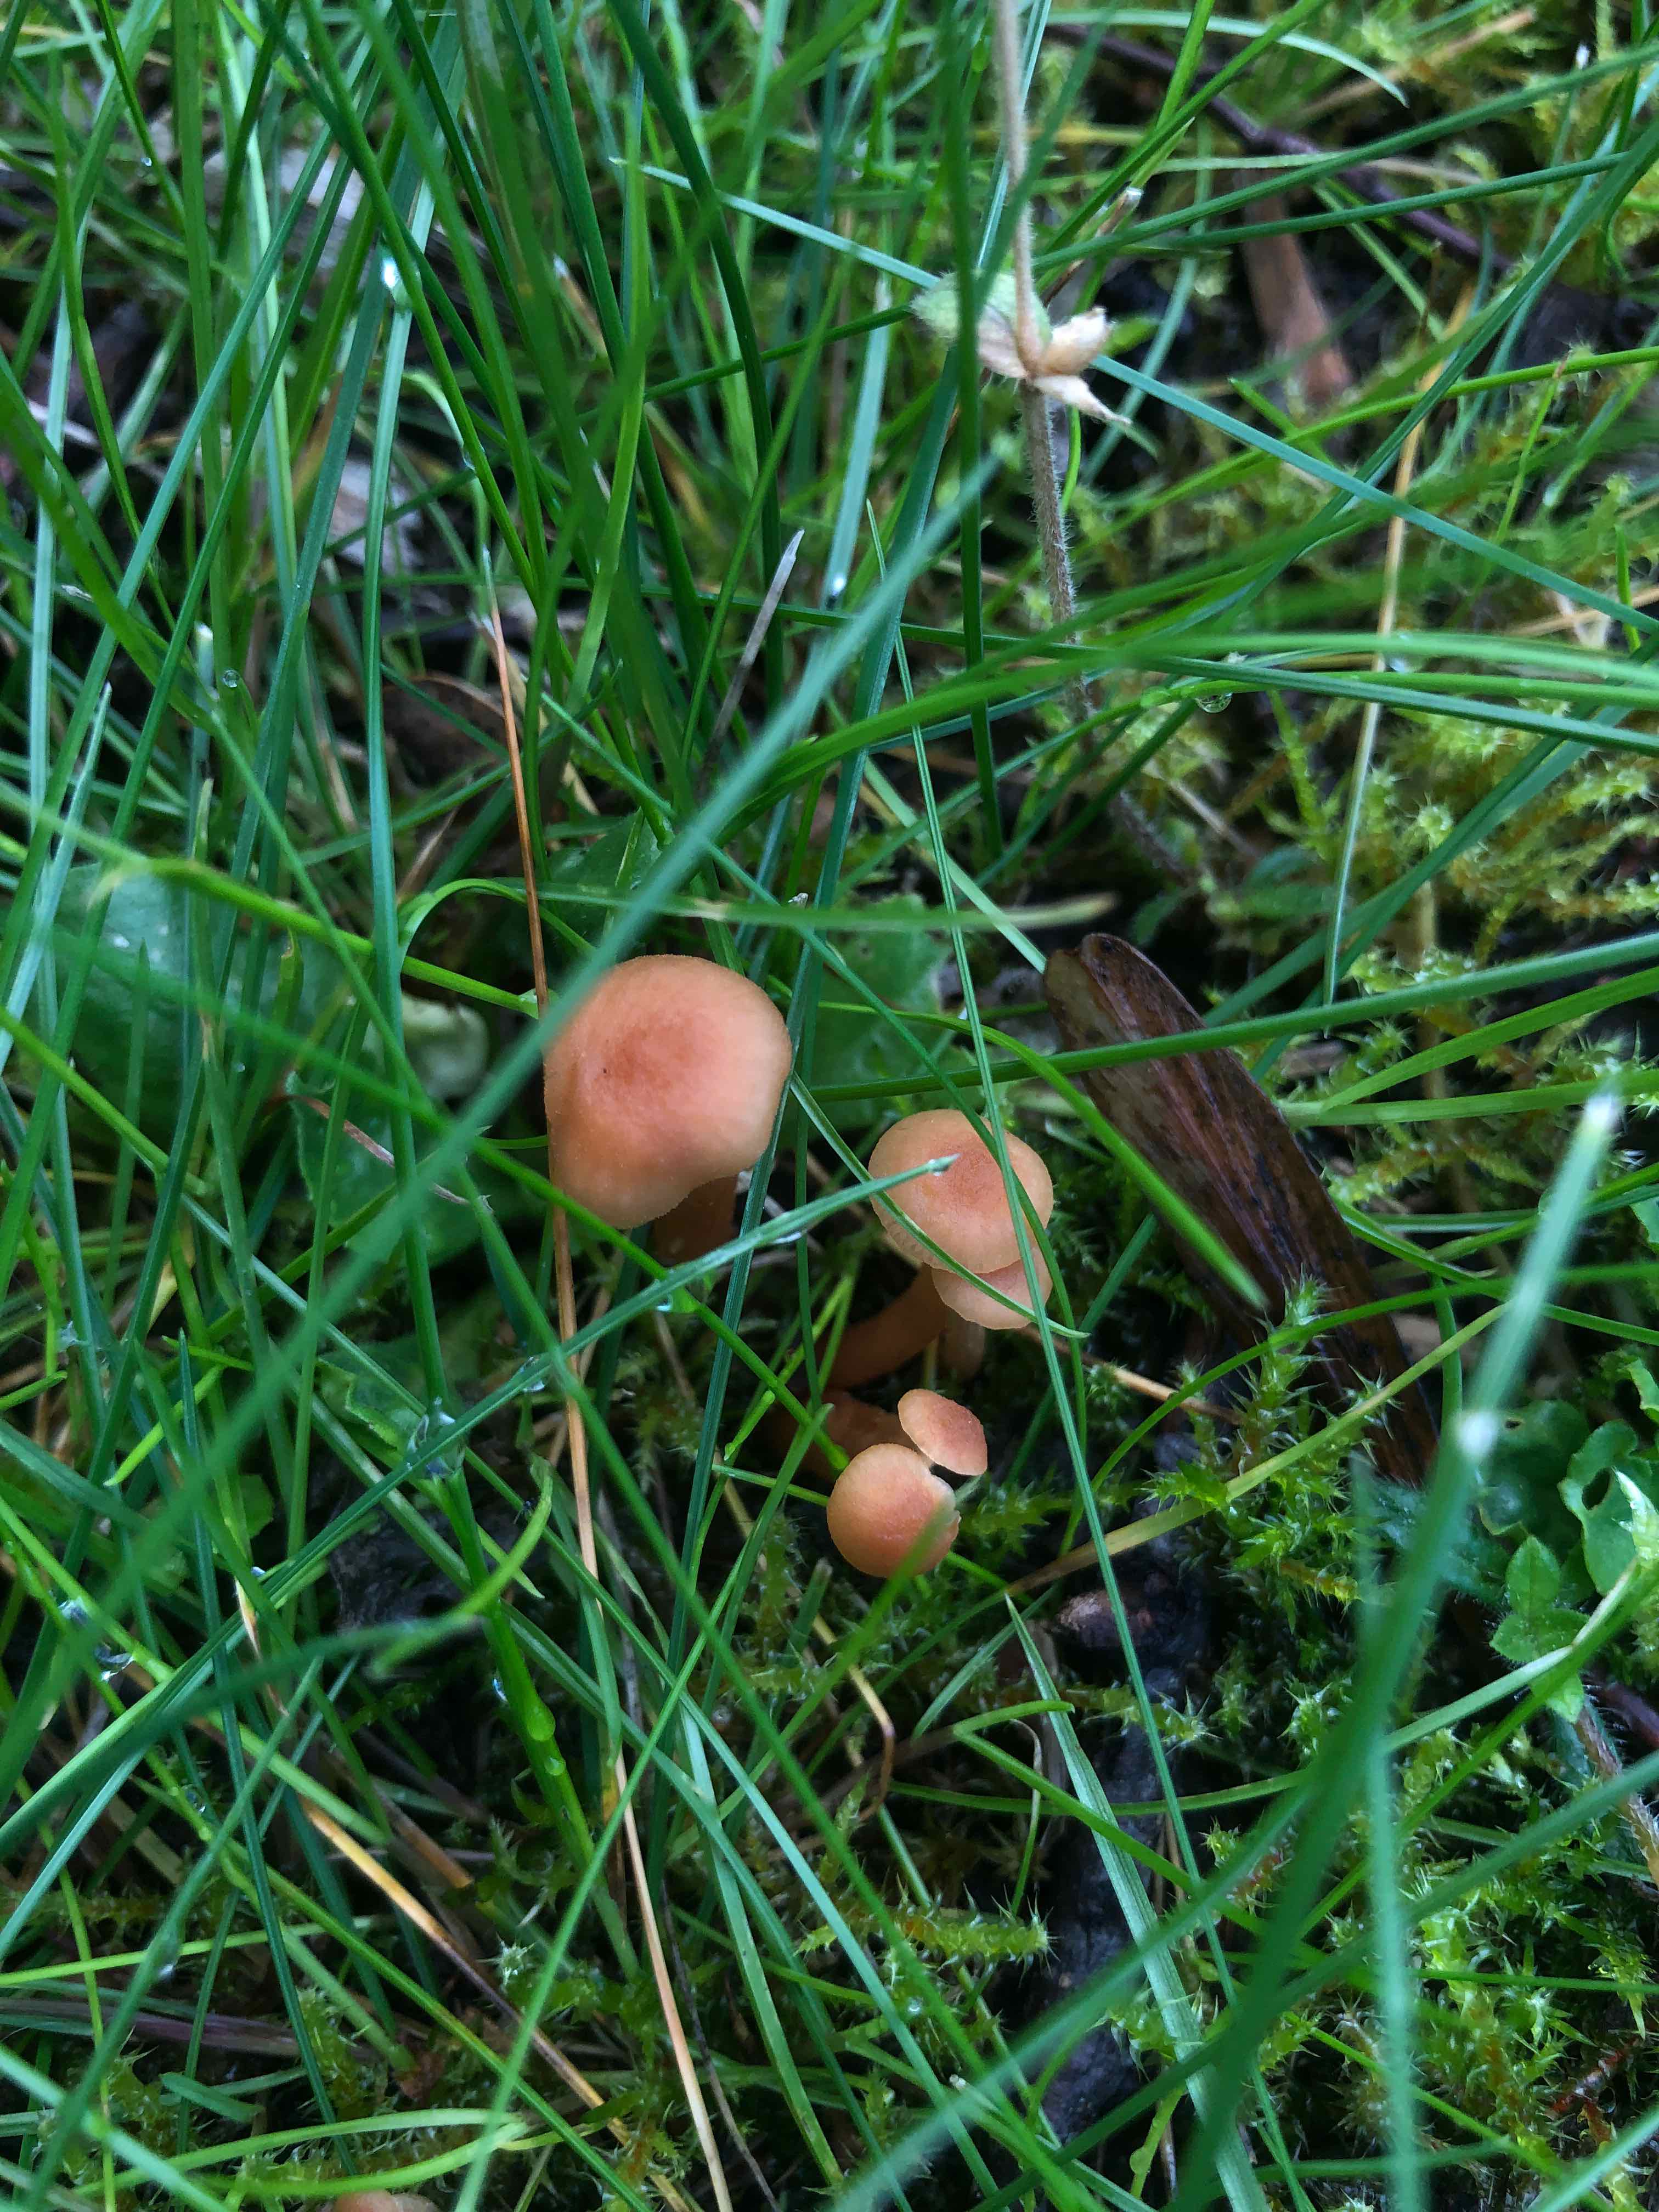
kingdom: Fungi
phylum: Basidiomycota
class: Agaricomycetes
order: Agaricales
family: Hydnangiaceae
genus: Laccaria
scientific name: Laccaria laccata
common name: rød ametysthat
